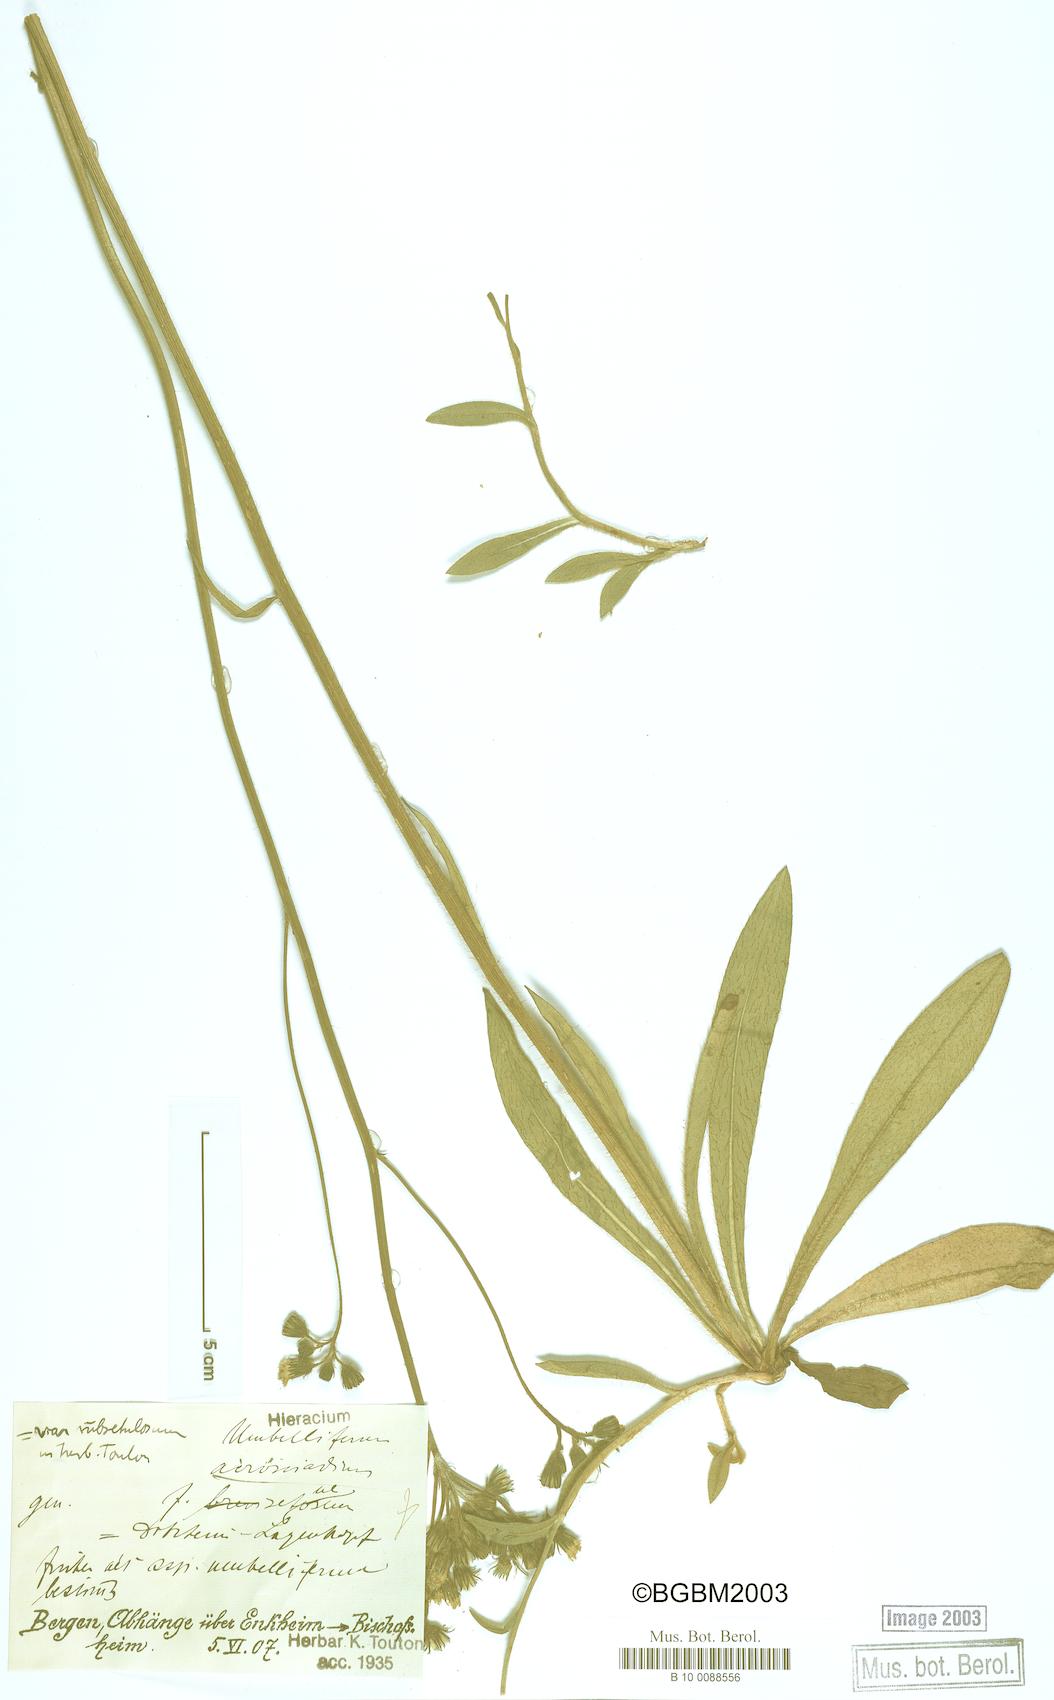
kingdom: Plantae
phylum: Tracheophyta
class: Magnoliopsida
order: Asterales
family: Asteraceae
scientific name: Asteraceae
